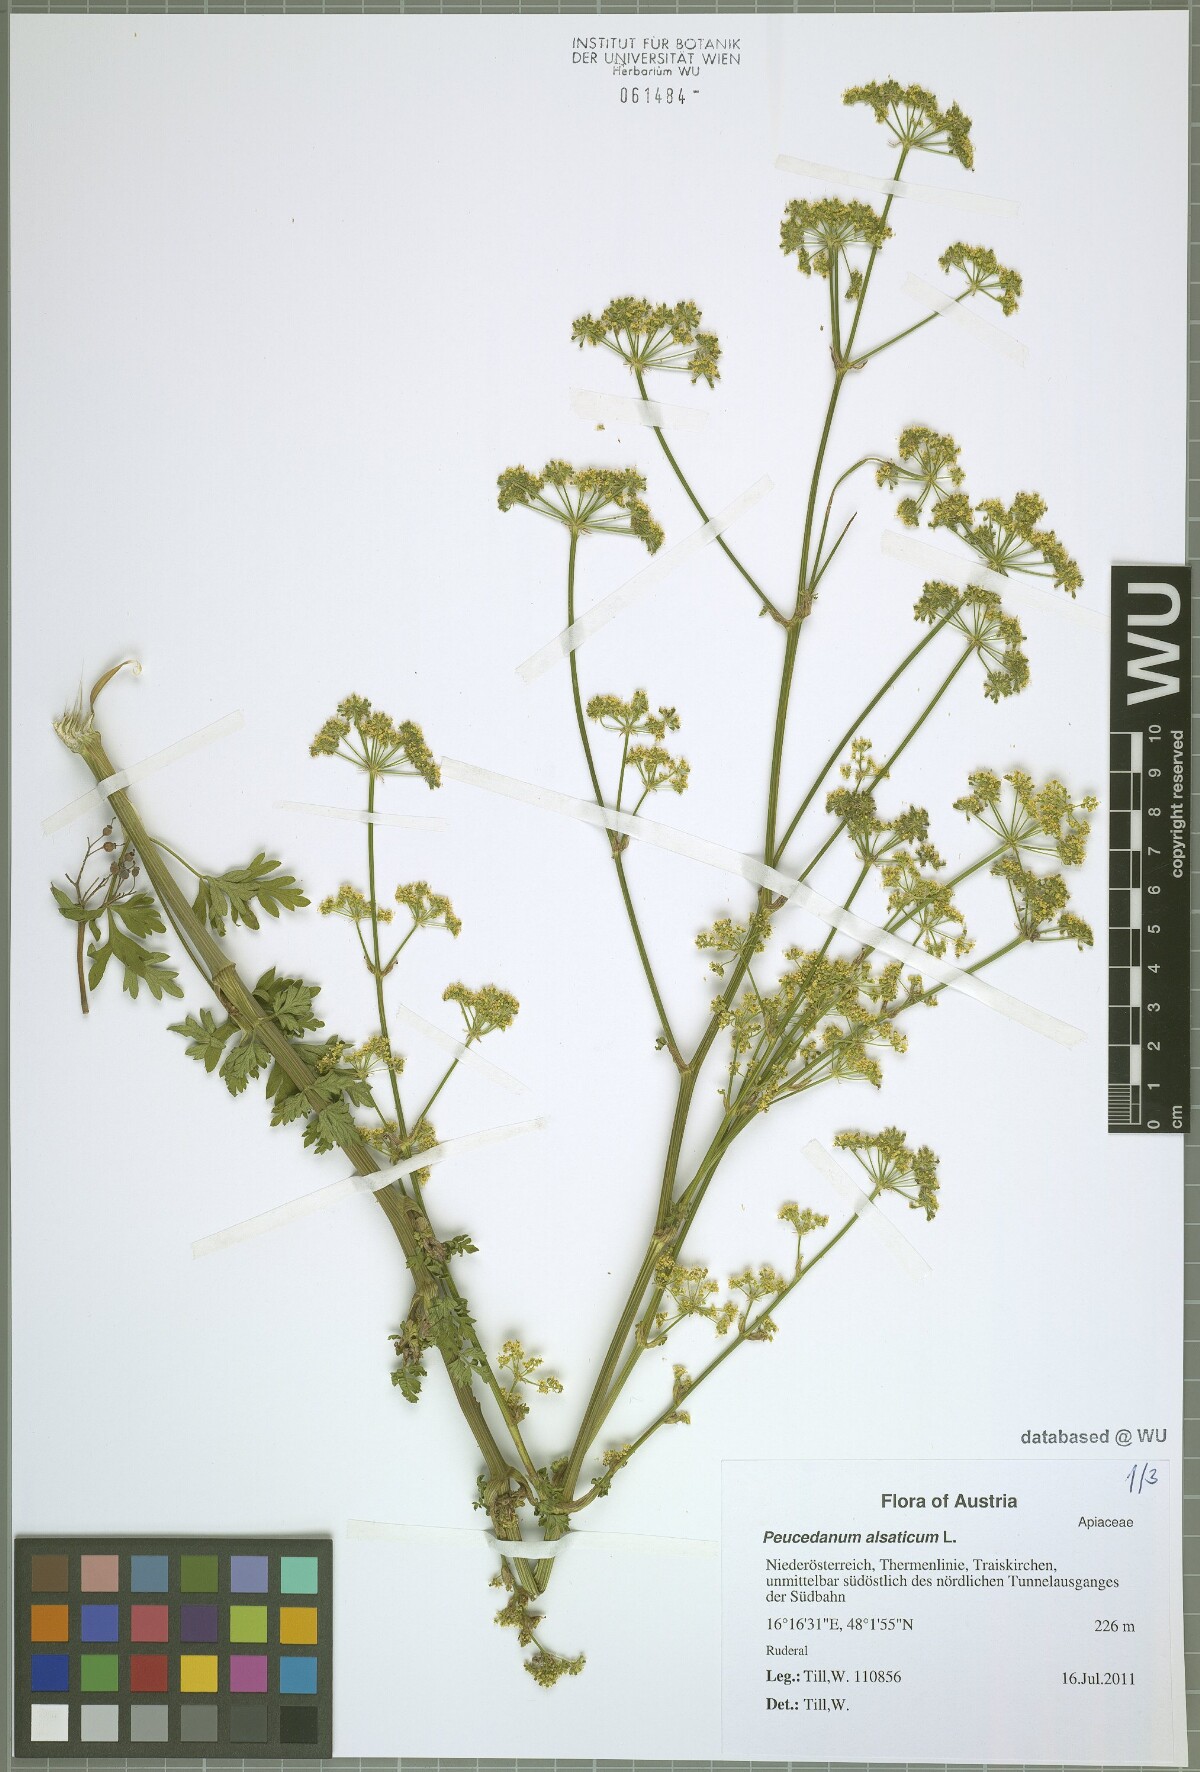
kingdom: Plantae
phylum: Tracheophyta
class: Magnoliopsida
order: Apiales
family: Apiaceae
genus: Xanthoselinum
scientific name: Xanthoselinum alsaticum
